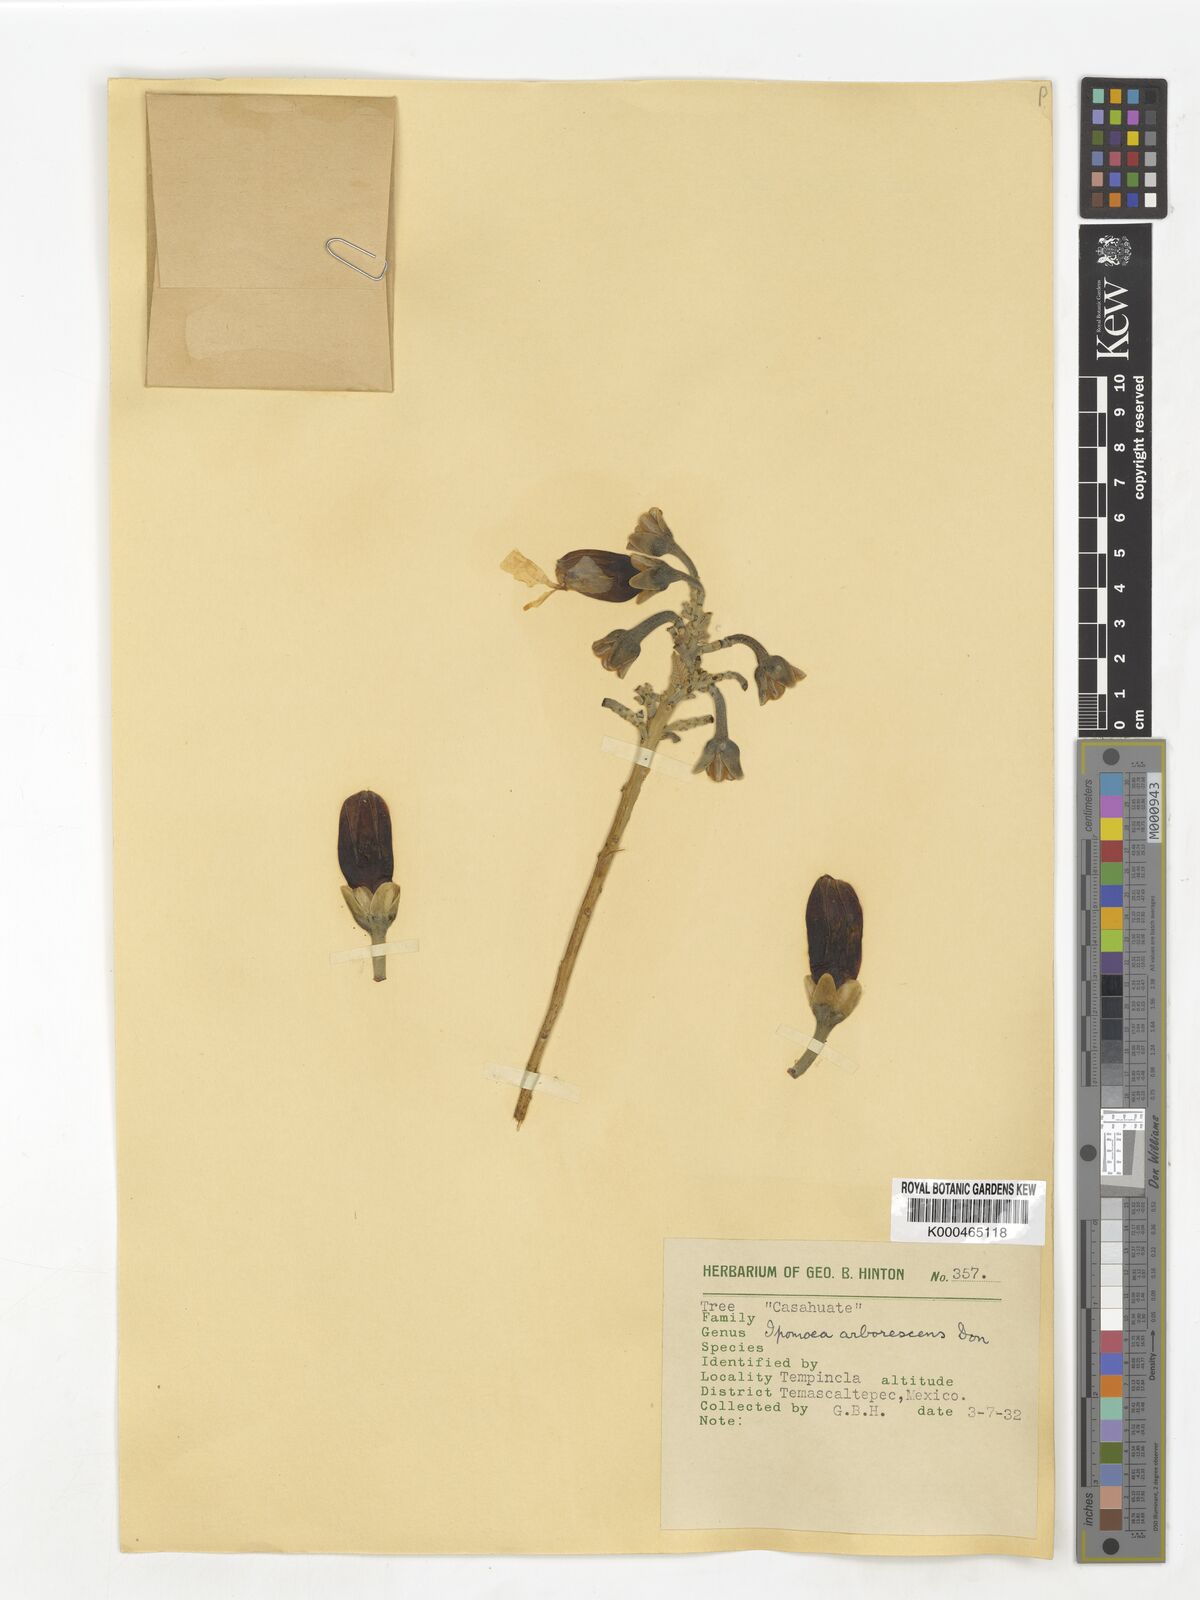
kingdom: Plantae
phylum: Tracheophyta
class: Magnoliopsida
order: Solanales
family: Convolvulaceae
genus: Ipomoea
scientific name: Ipomoea arborescens
